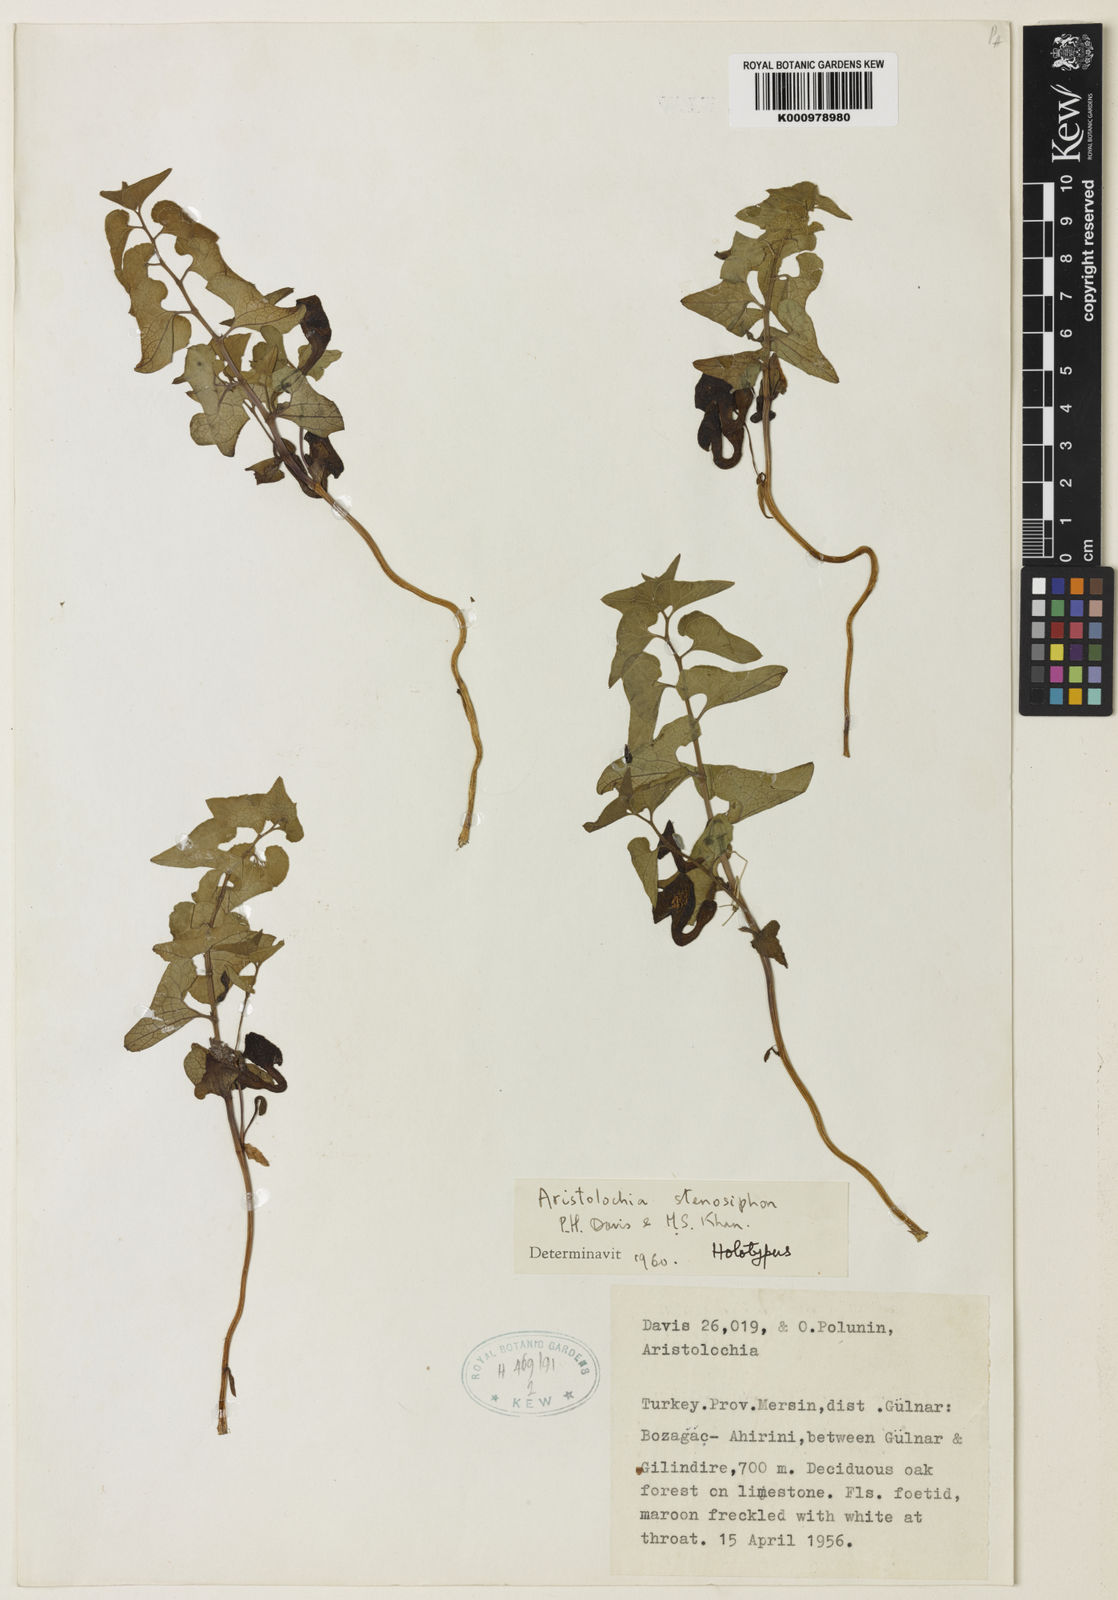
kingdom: Plantae
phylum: Tracheophyta
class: Magnoliopsida
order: Piperales
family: Aristolochiaceae
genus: Aristolochia
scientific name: Aristolochia stenosiphon
